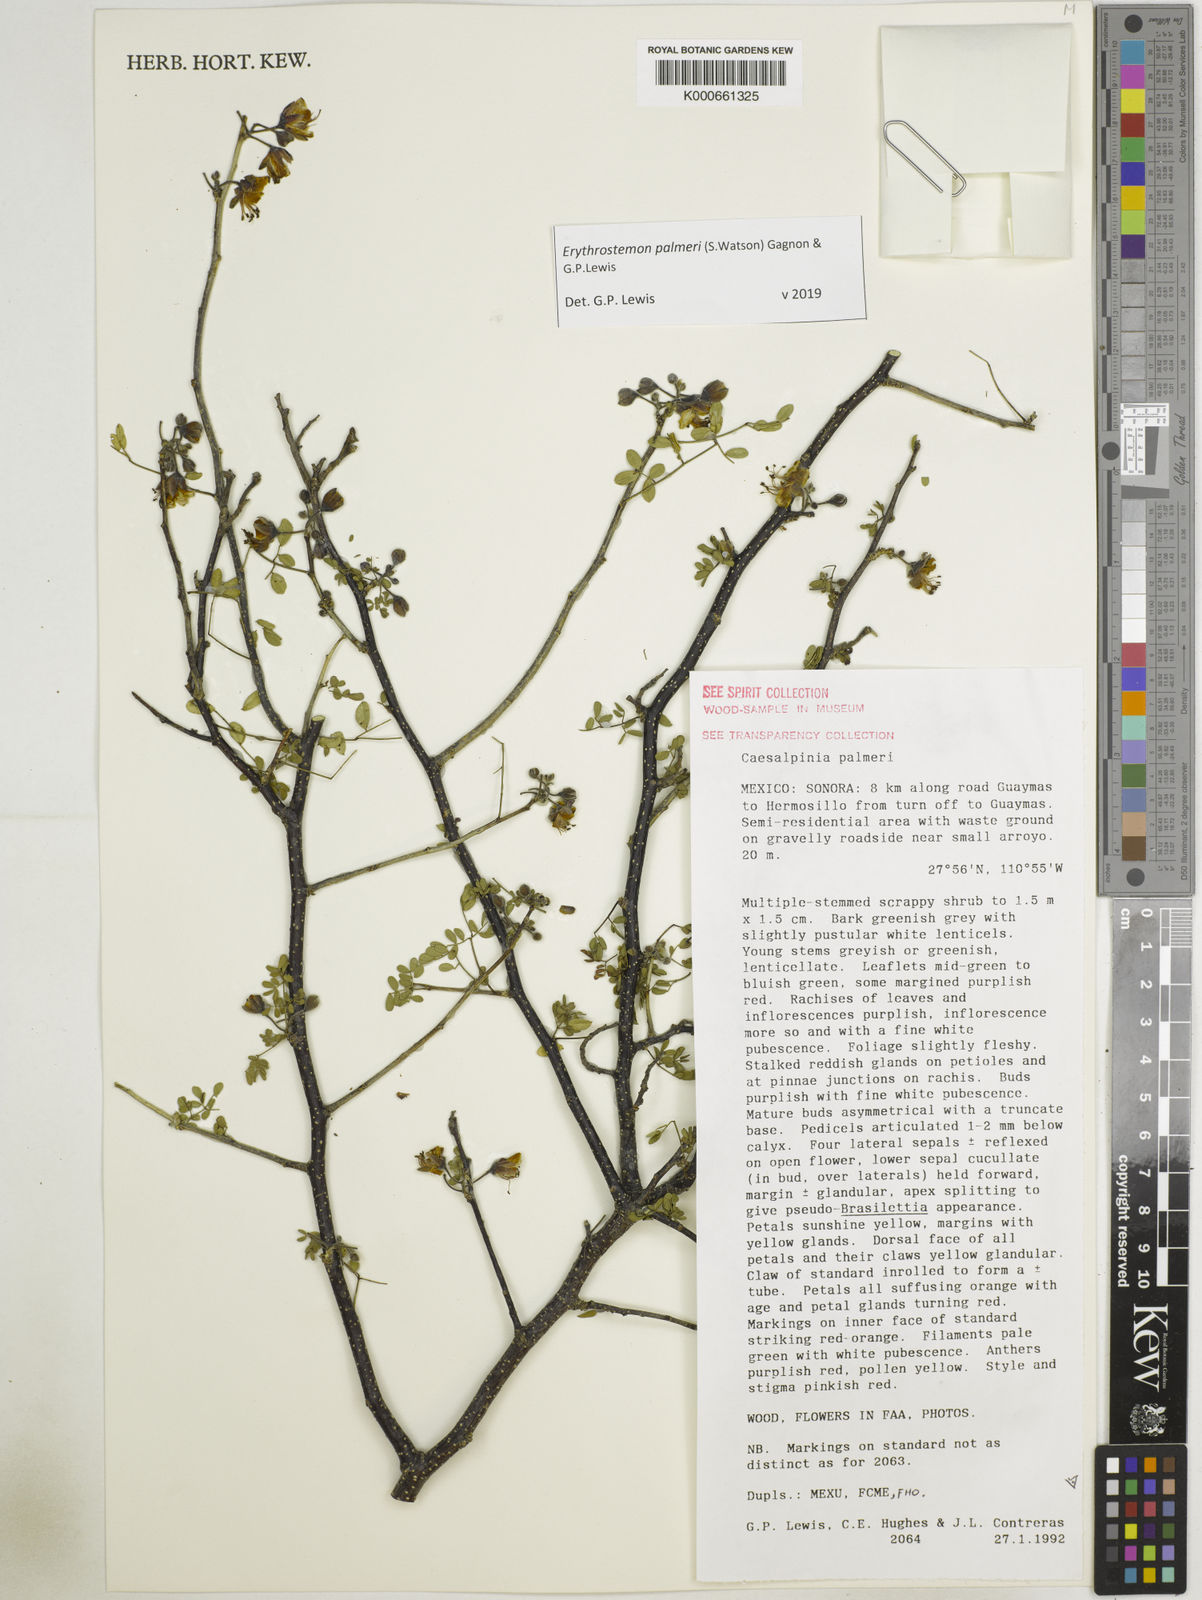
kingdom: Plantae
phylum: Tracheophyta
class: Magnoliopsida
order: Fabales
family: Fabaceae
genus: Erythrostemon
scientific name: Erythrostemon palmeri
